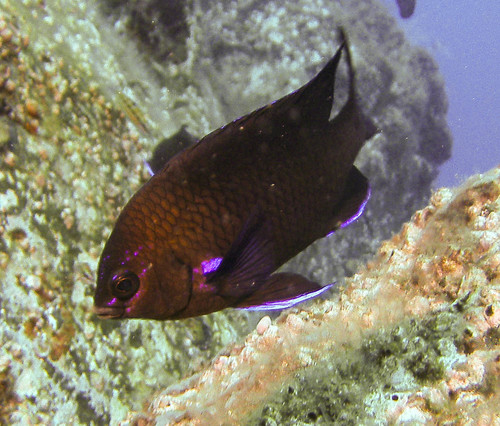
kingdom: Animalia
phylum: Chordata
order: Perciformes
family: Pomacentridae
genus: Abudefduf
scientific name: Abudefduf luridus
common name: Canary damsel
